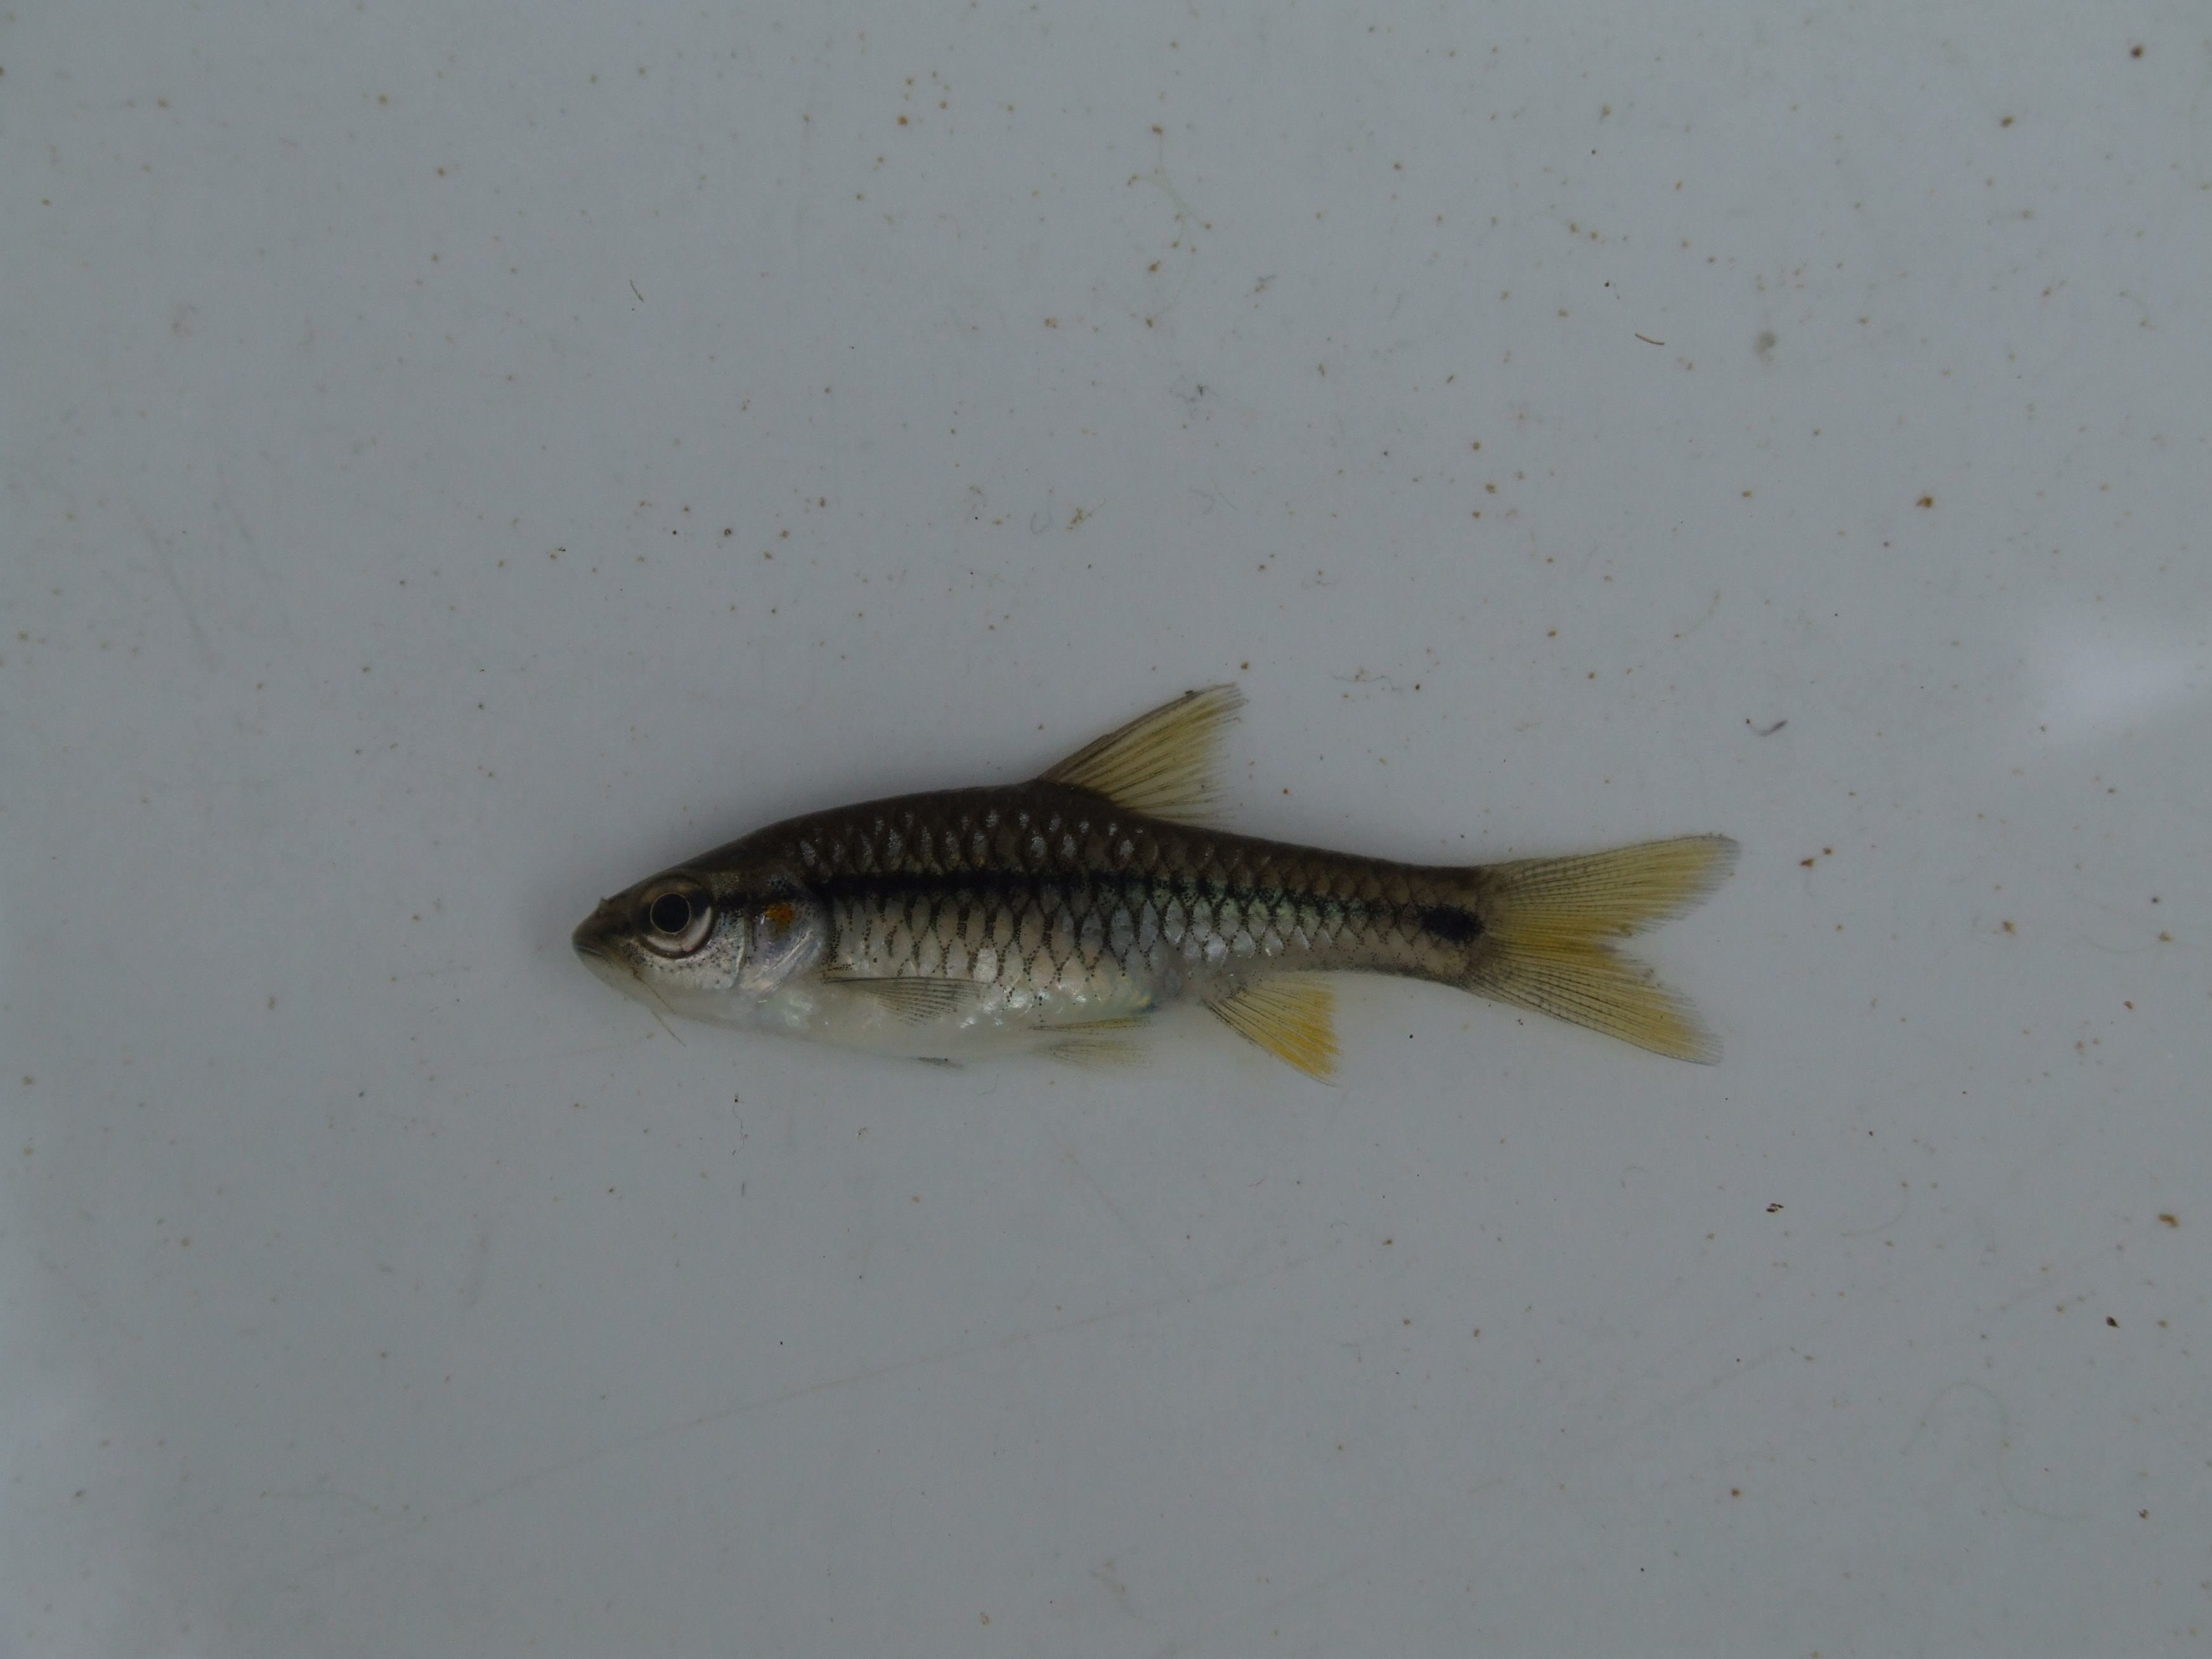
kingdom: Animalia
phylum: Chordata
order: Cypriniformes
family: Cyprinidae
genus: Enteromius
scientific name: Enteromius kerstenii
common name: Redspot barb
